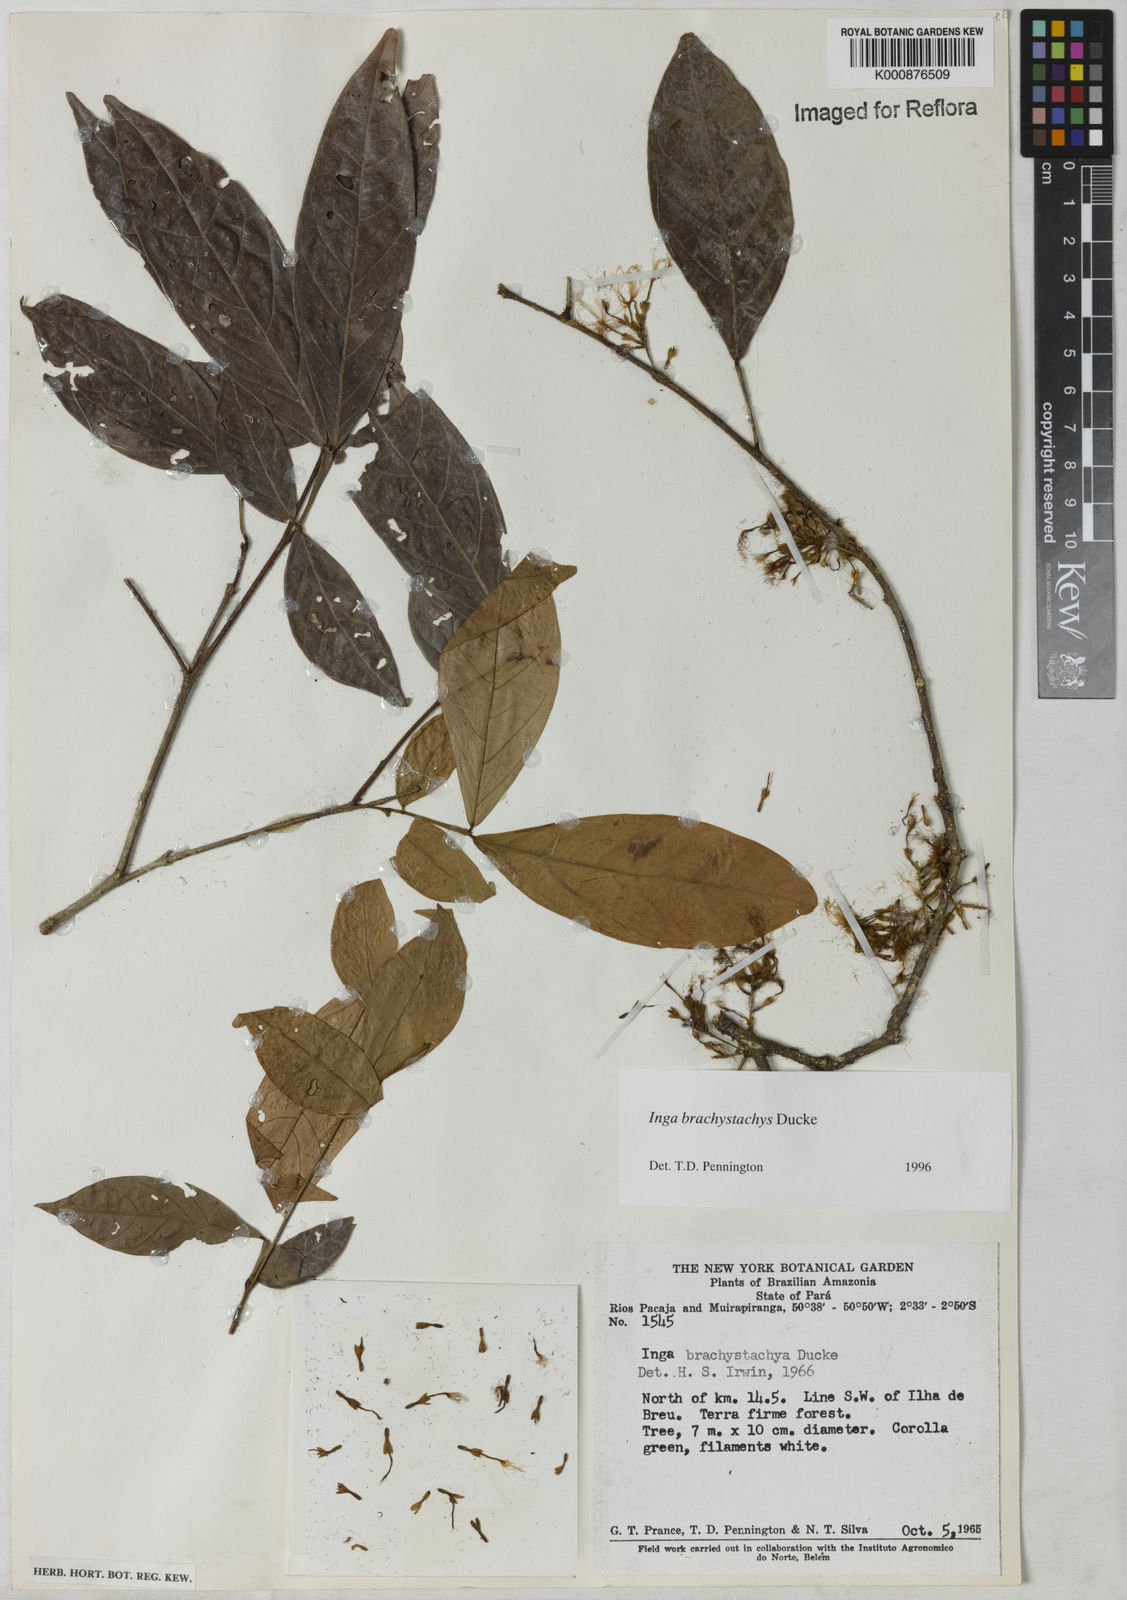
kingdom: Plantae
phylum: Tracheophyta
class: Magnoliopsida
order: Fabales
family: Fabaceae
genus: Inga
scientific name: Inga brachystachys
